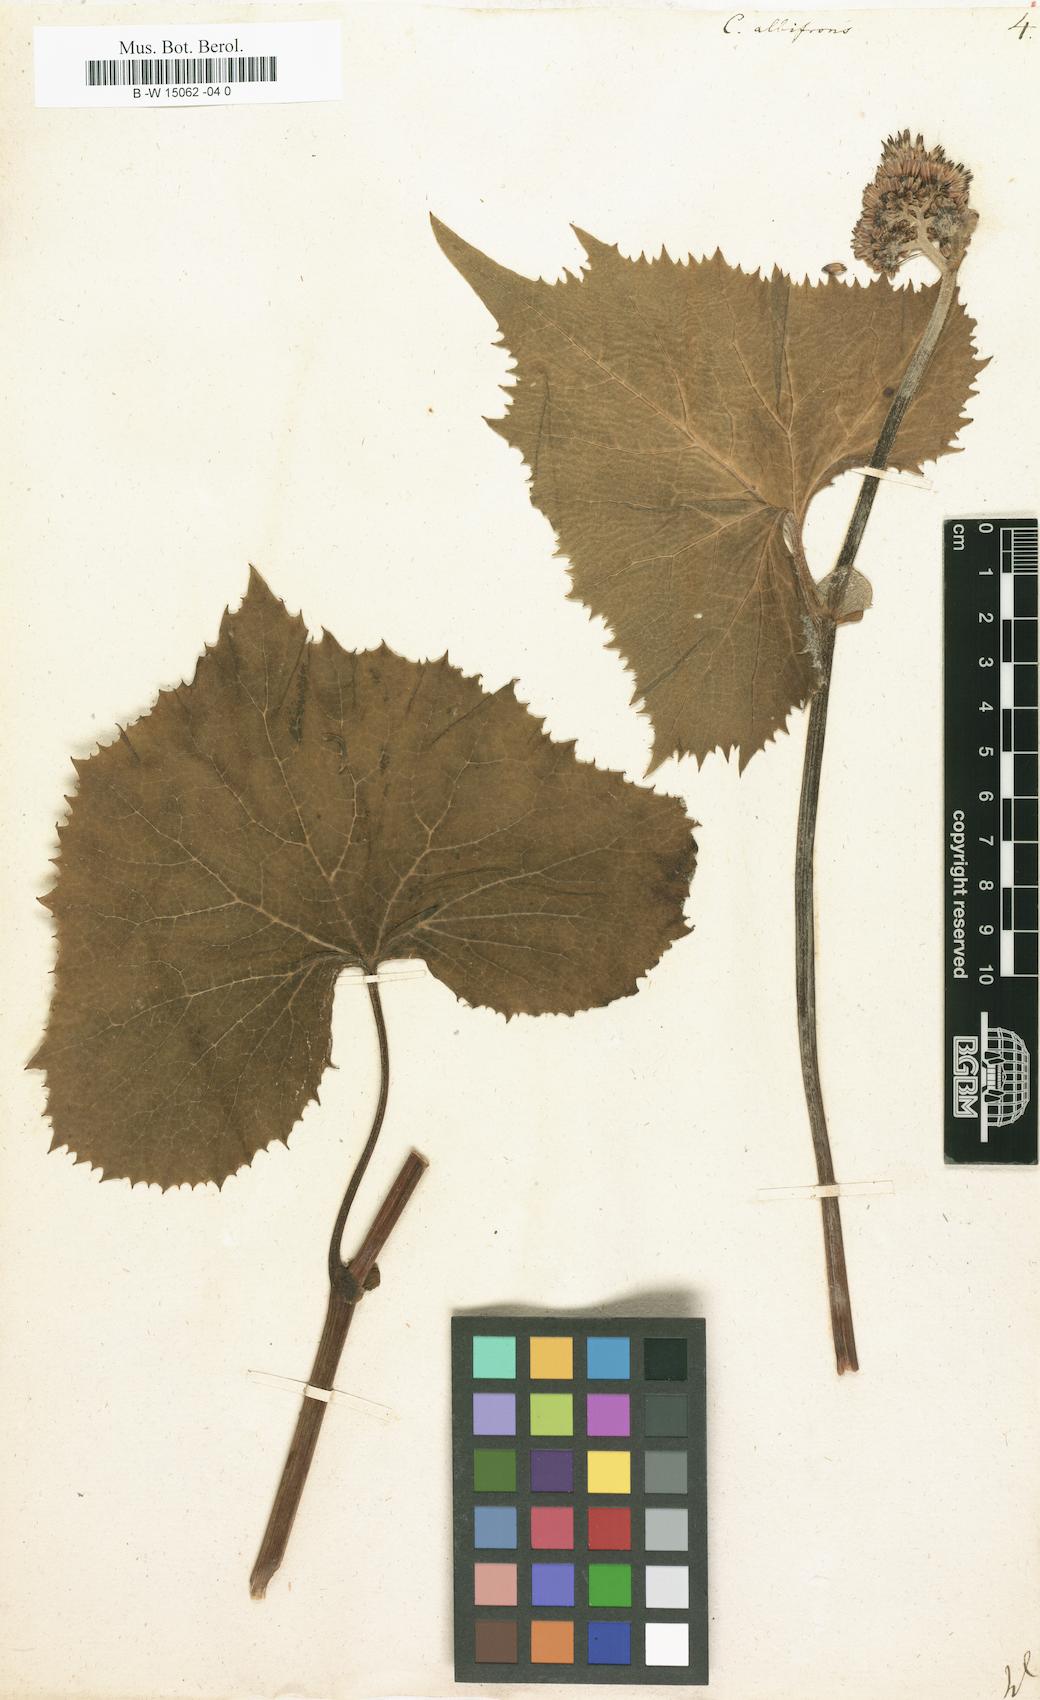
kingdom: Plantae
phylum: Tracheophyta
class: Magnoliopsida
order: Asterales
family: Asteraceae
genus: Adenostyles
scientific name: Adenostyles alliariae
